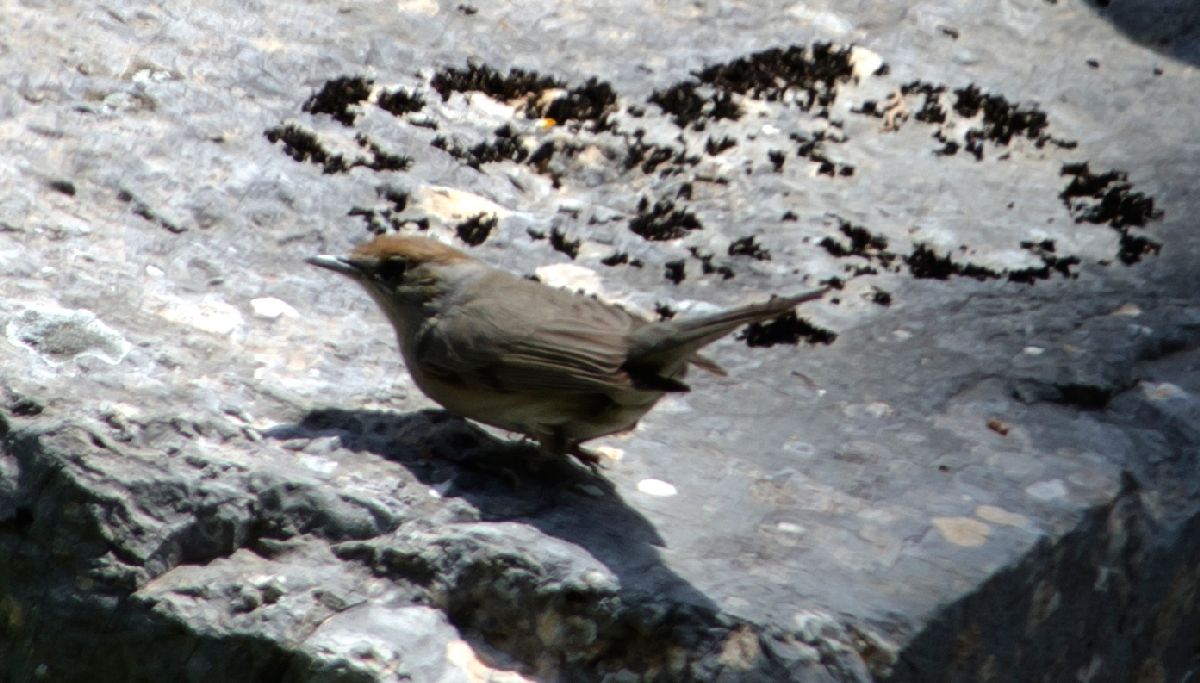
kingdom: Animalia
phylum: Chordata
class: Aves
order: Passeriformes
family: Sylviidae
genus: Sylvia
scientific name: Sylvia atricapilla
